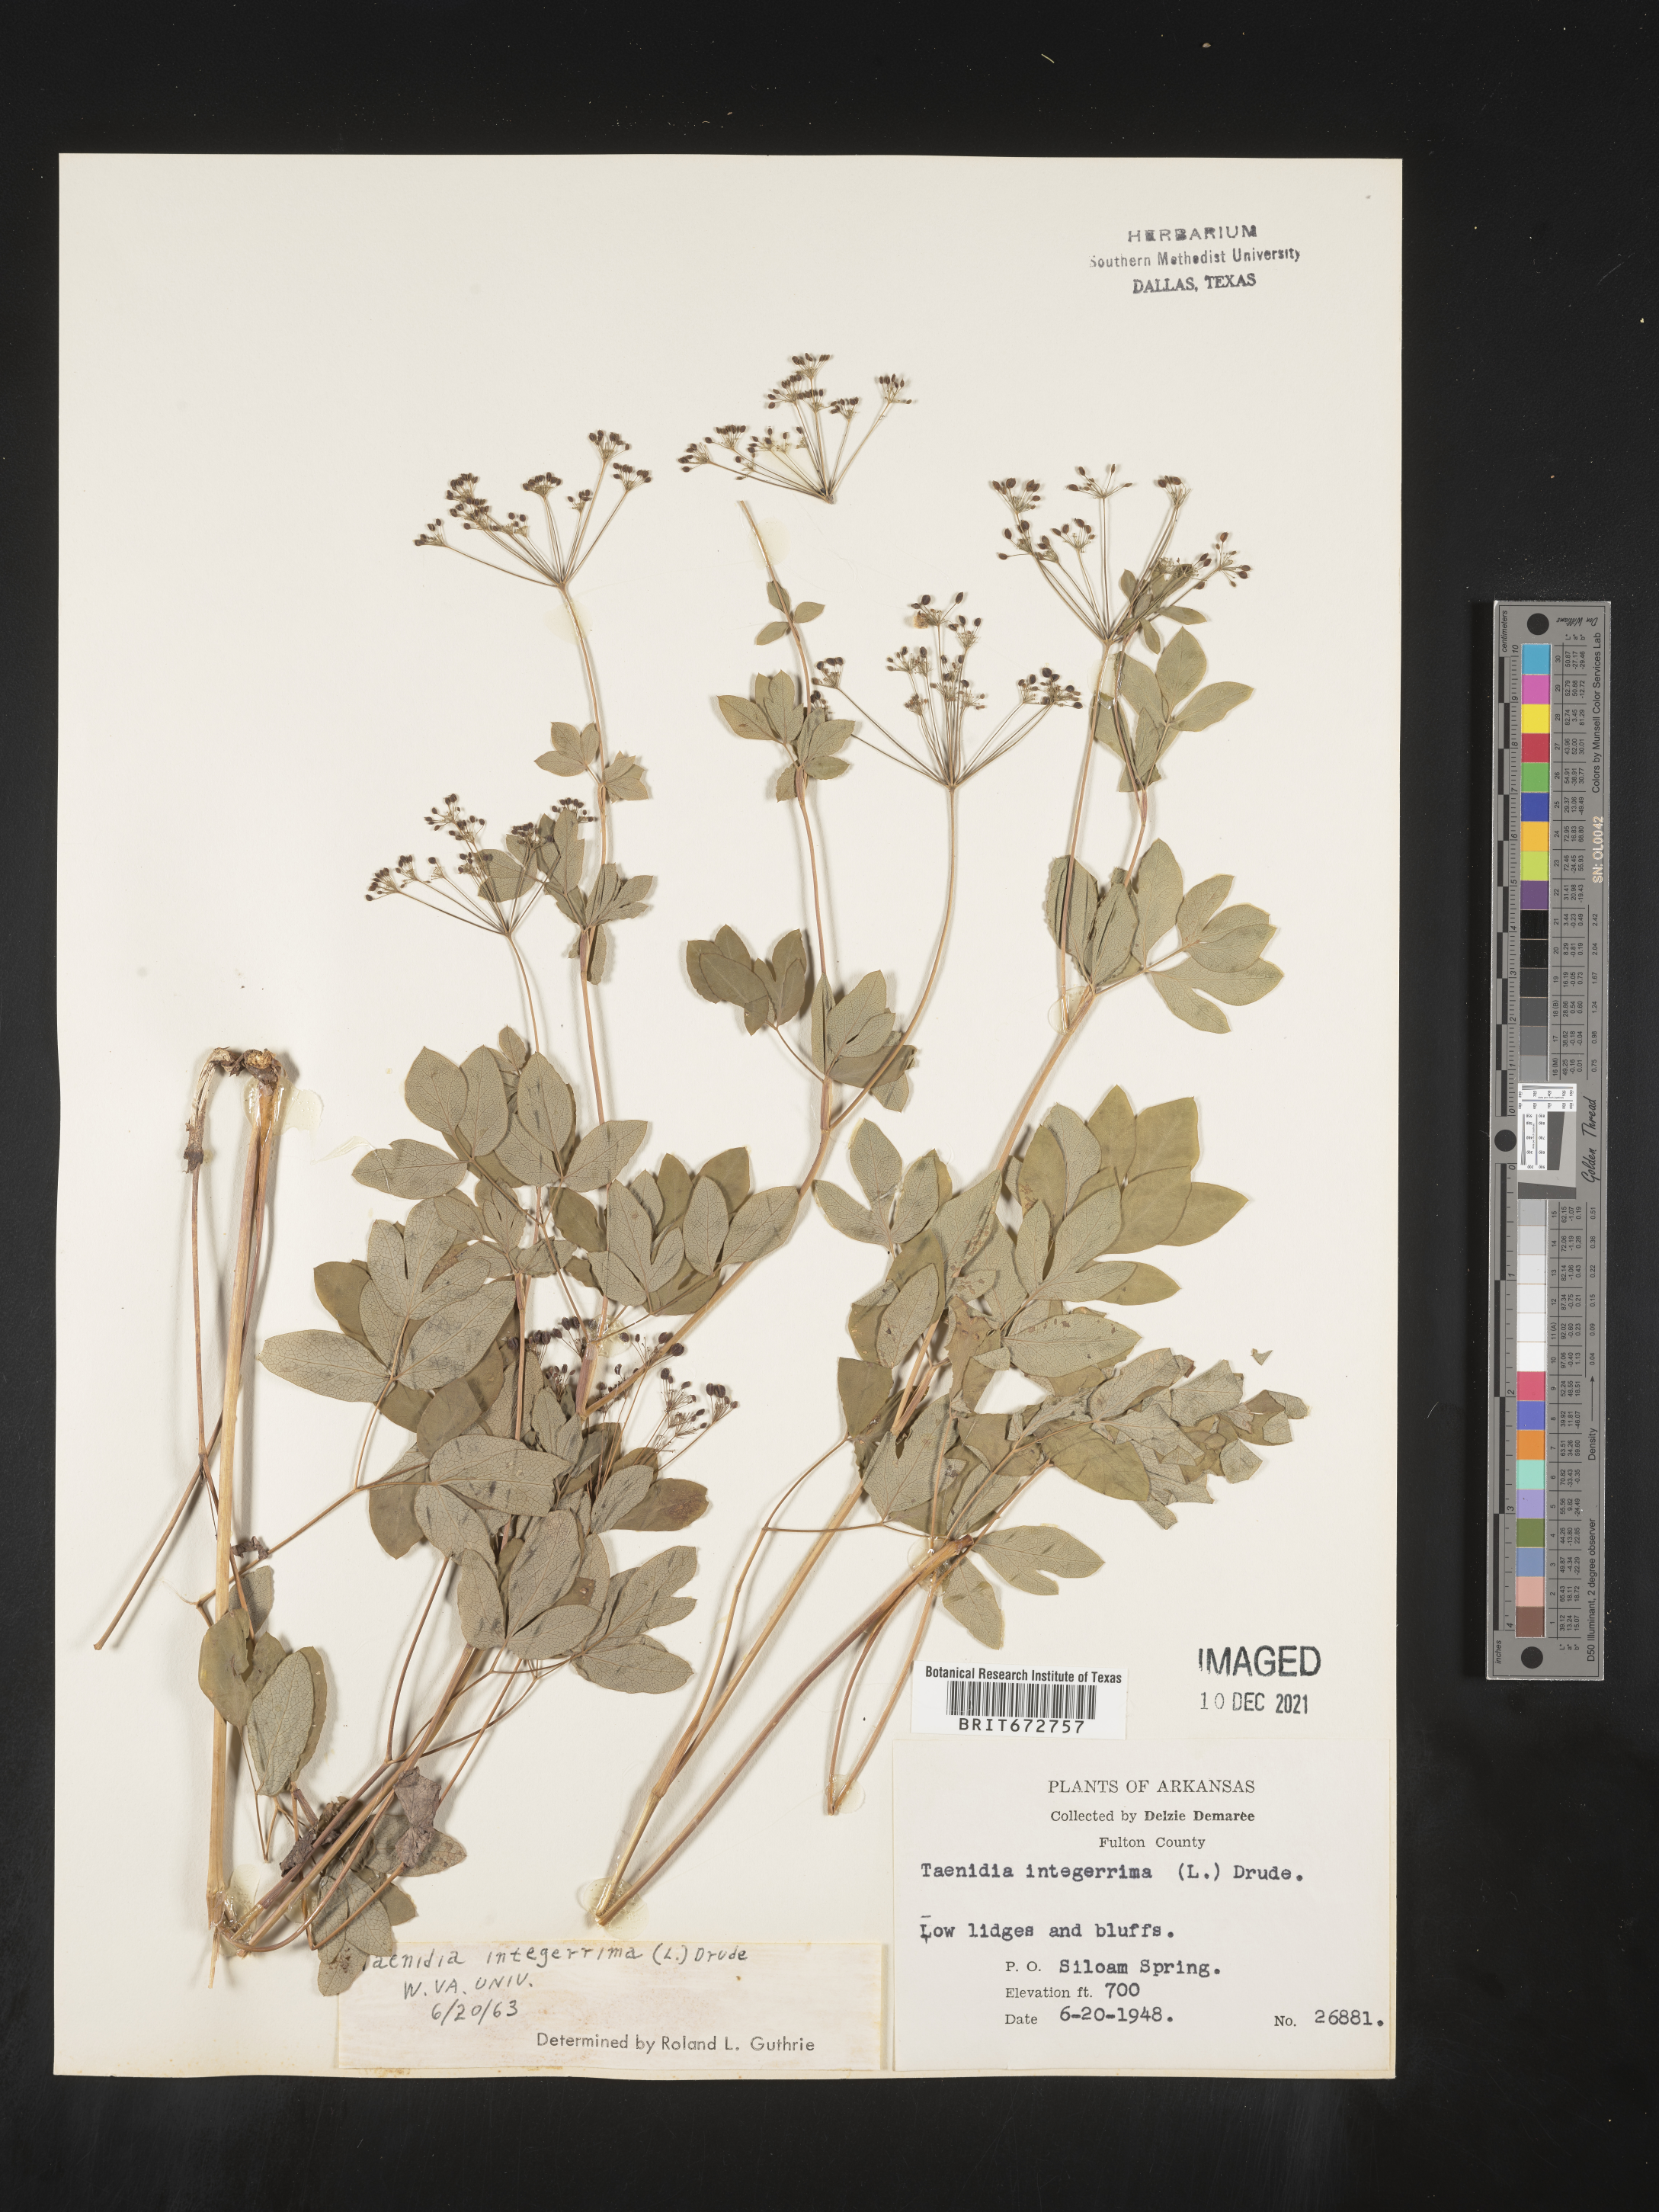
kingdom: Plantae
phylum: Tracheophyta
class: Magnoliopsida
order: Apiales
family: Apiaceae
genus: Taenidia
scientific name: Taenidia integerrima
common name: Golden alexander
